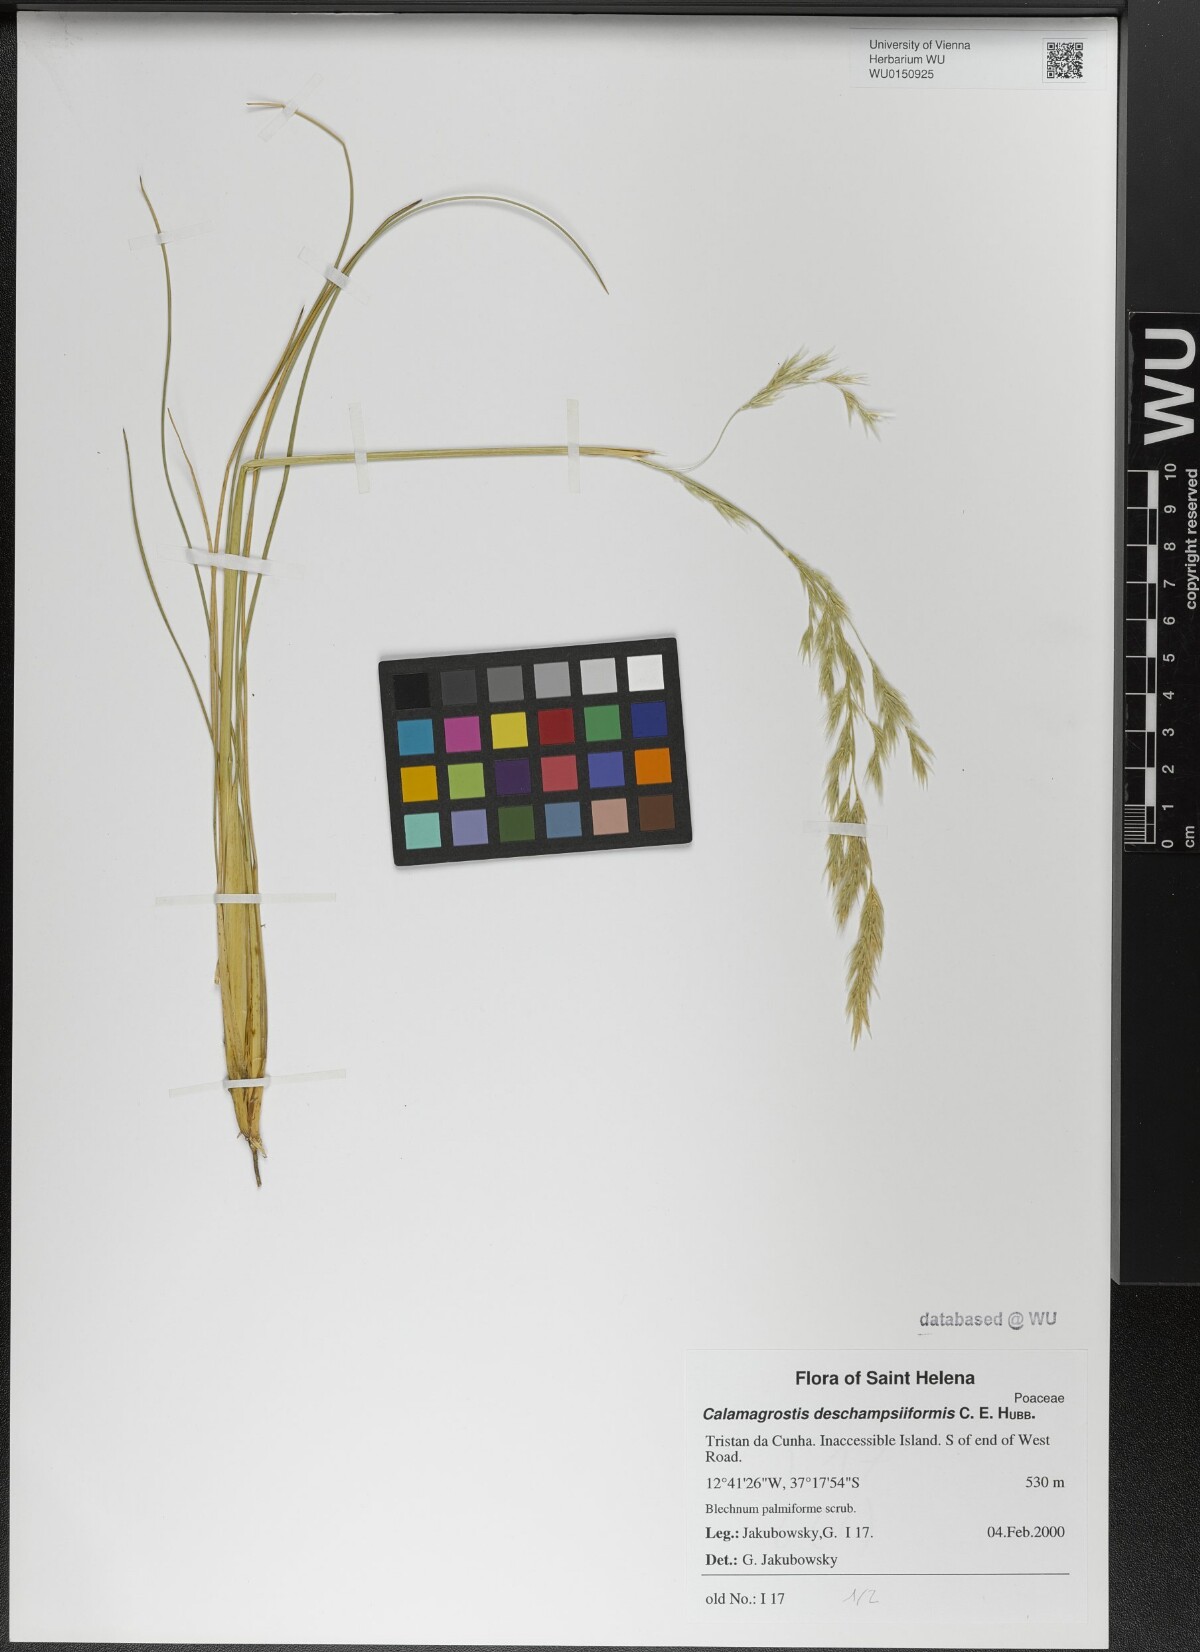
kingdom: Plantae
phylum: Tracheophyta
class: Liliopsida
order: Poales
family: Poaceae
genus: Calamagrostis
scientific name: Calamagrostis deschampsiiformis
